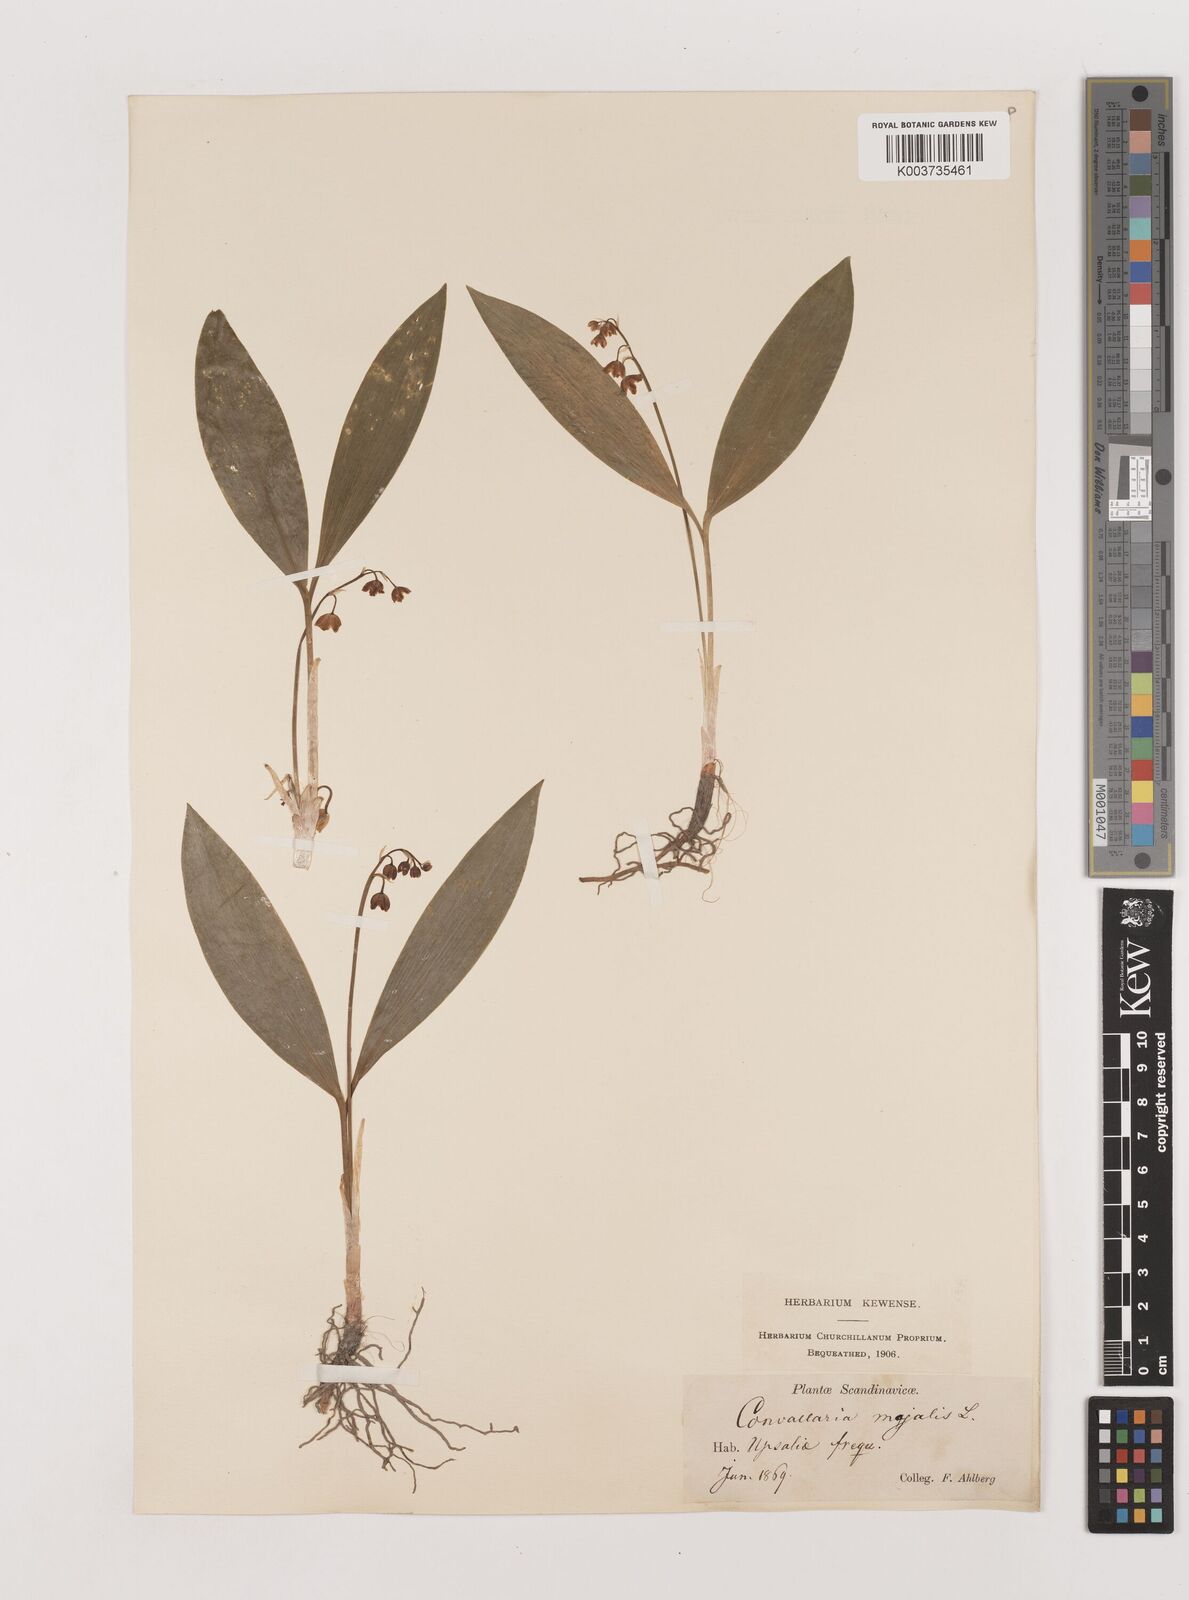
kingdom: Plantae
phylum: Tracheophyta
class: Liliopsida
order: Asparagales
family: Asparagaceae
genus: Convallaria
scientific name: Convallaria majalis
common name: Lily-of-the-valley
